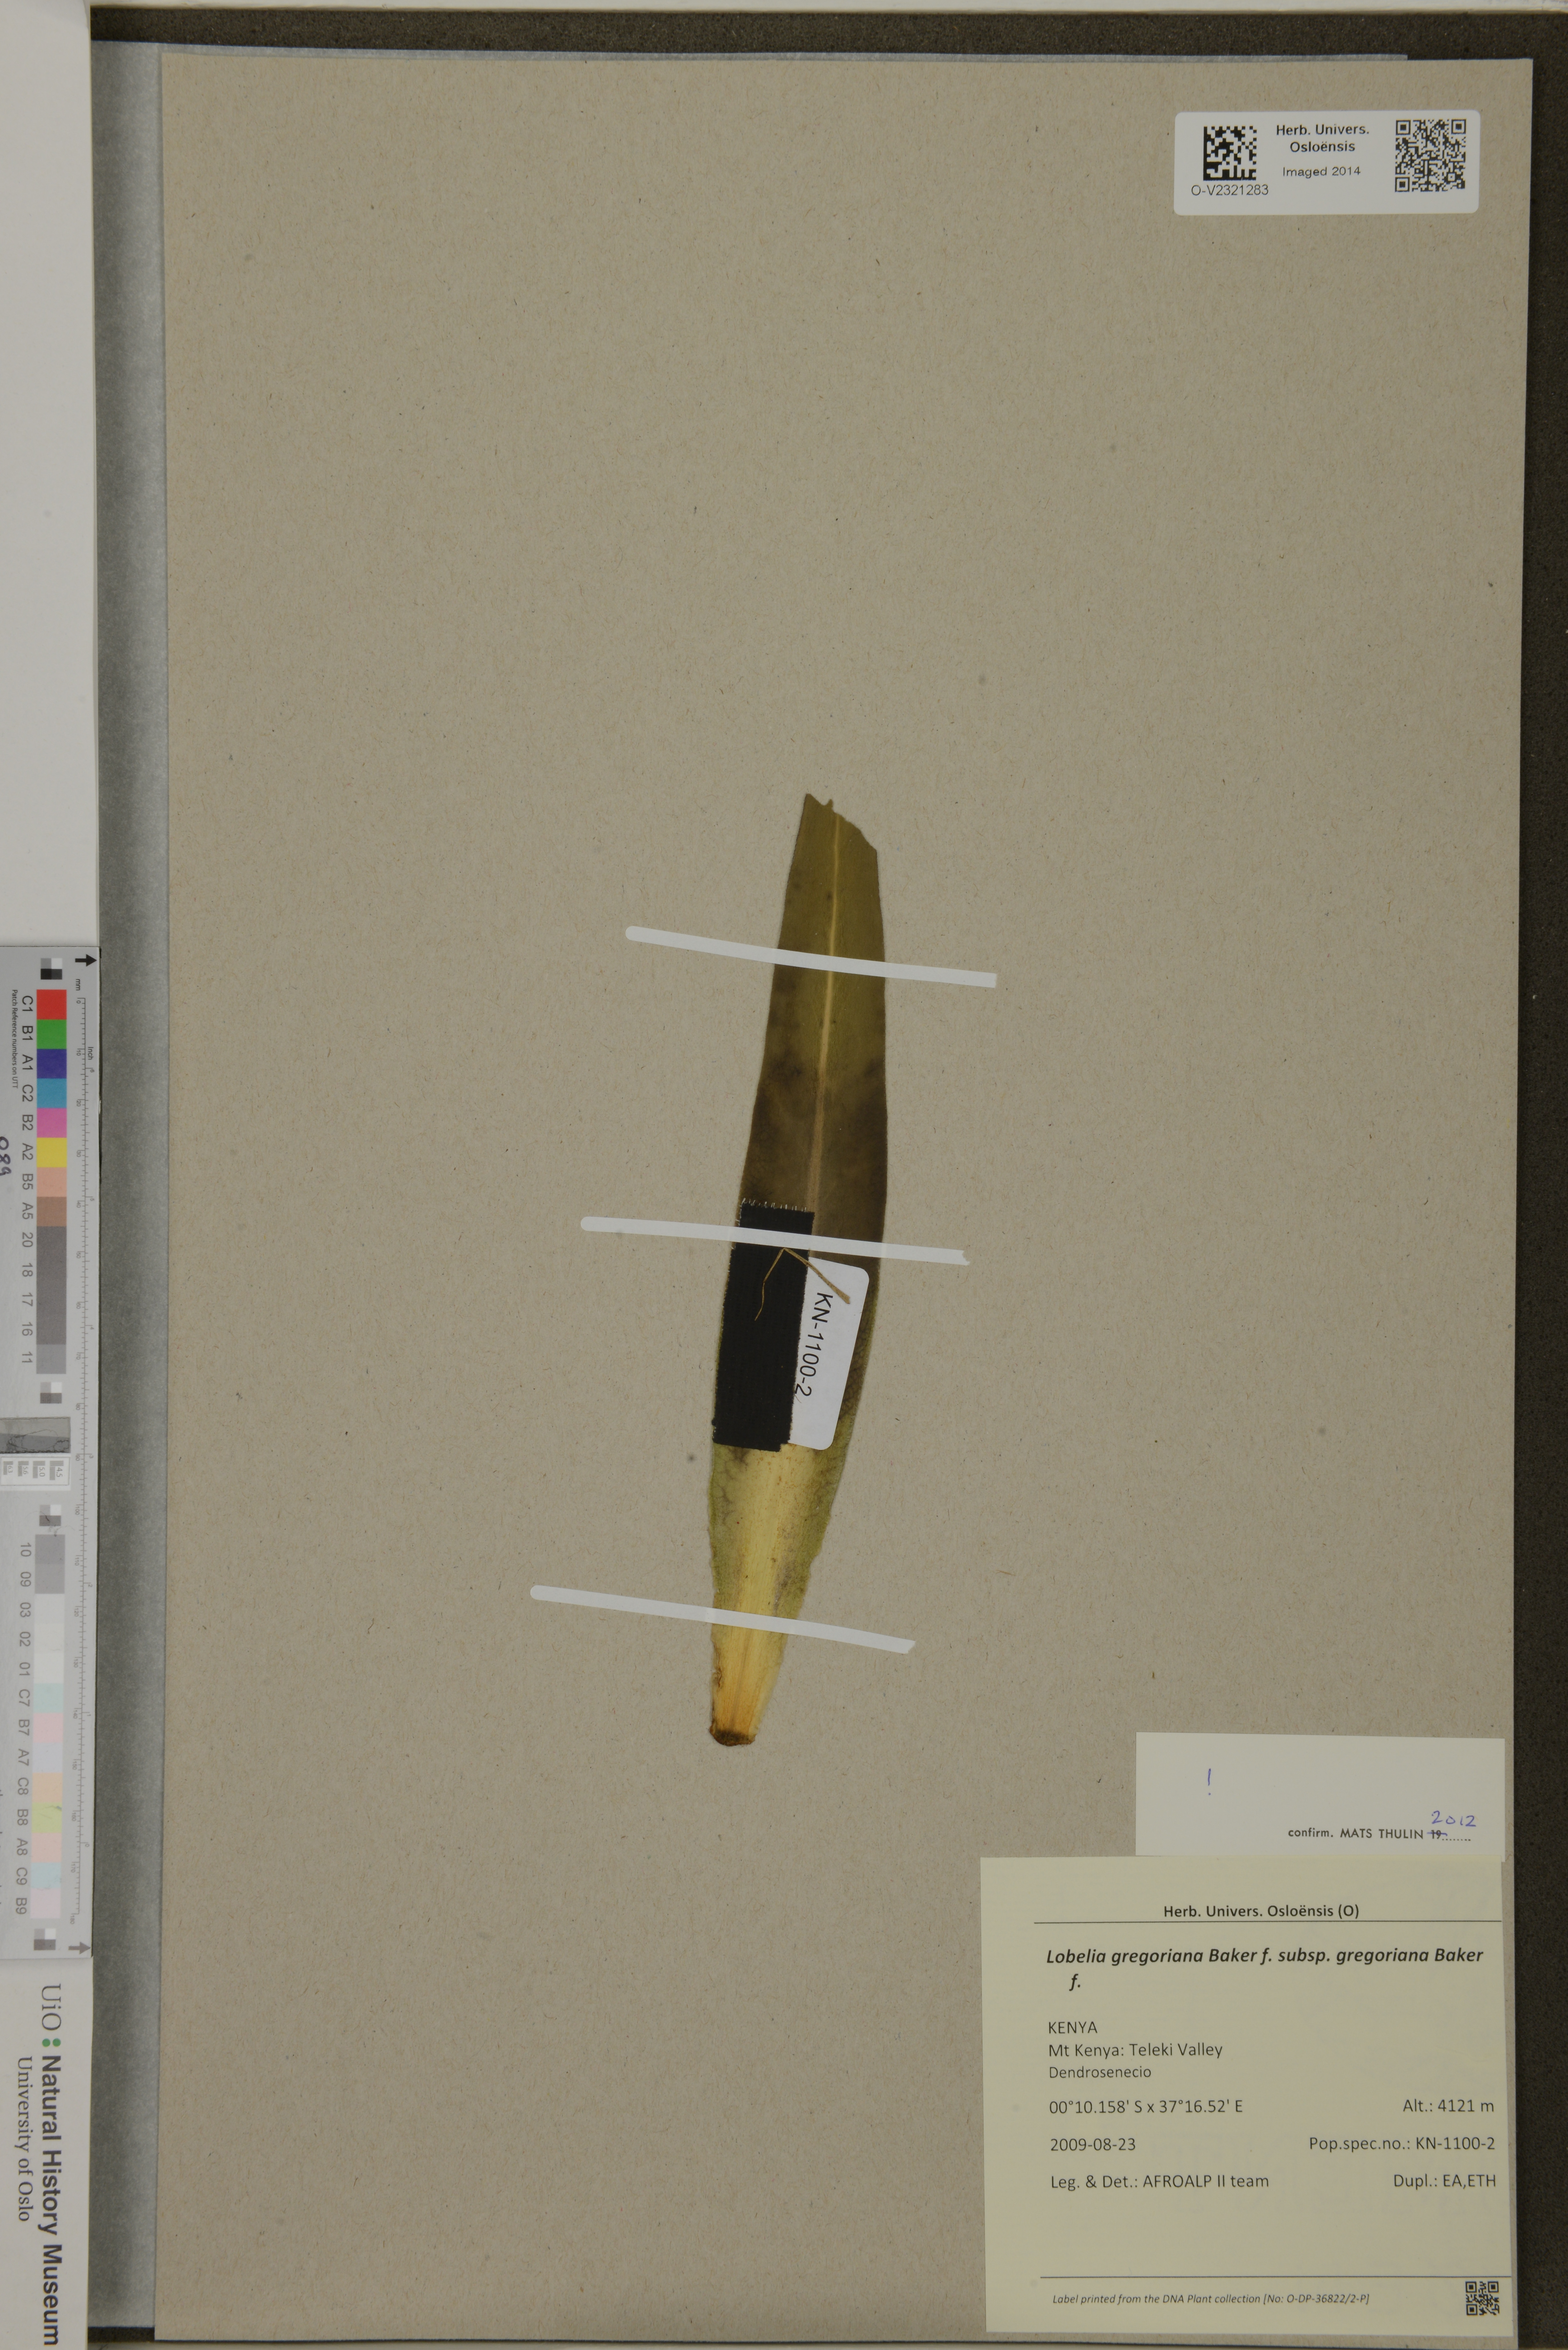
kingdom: Plantae
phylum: Tracheophyta
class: Magnoliopsida
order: Asterales
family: Campanulaceae
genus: Lobelia
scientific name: Lobelia gregoriana
